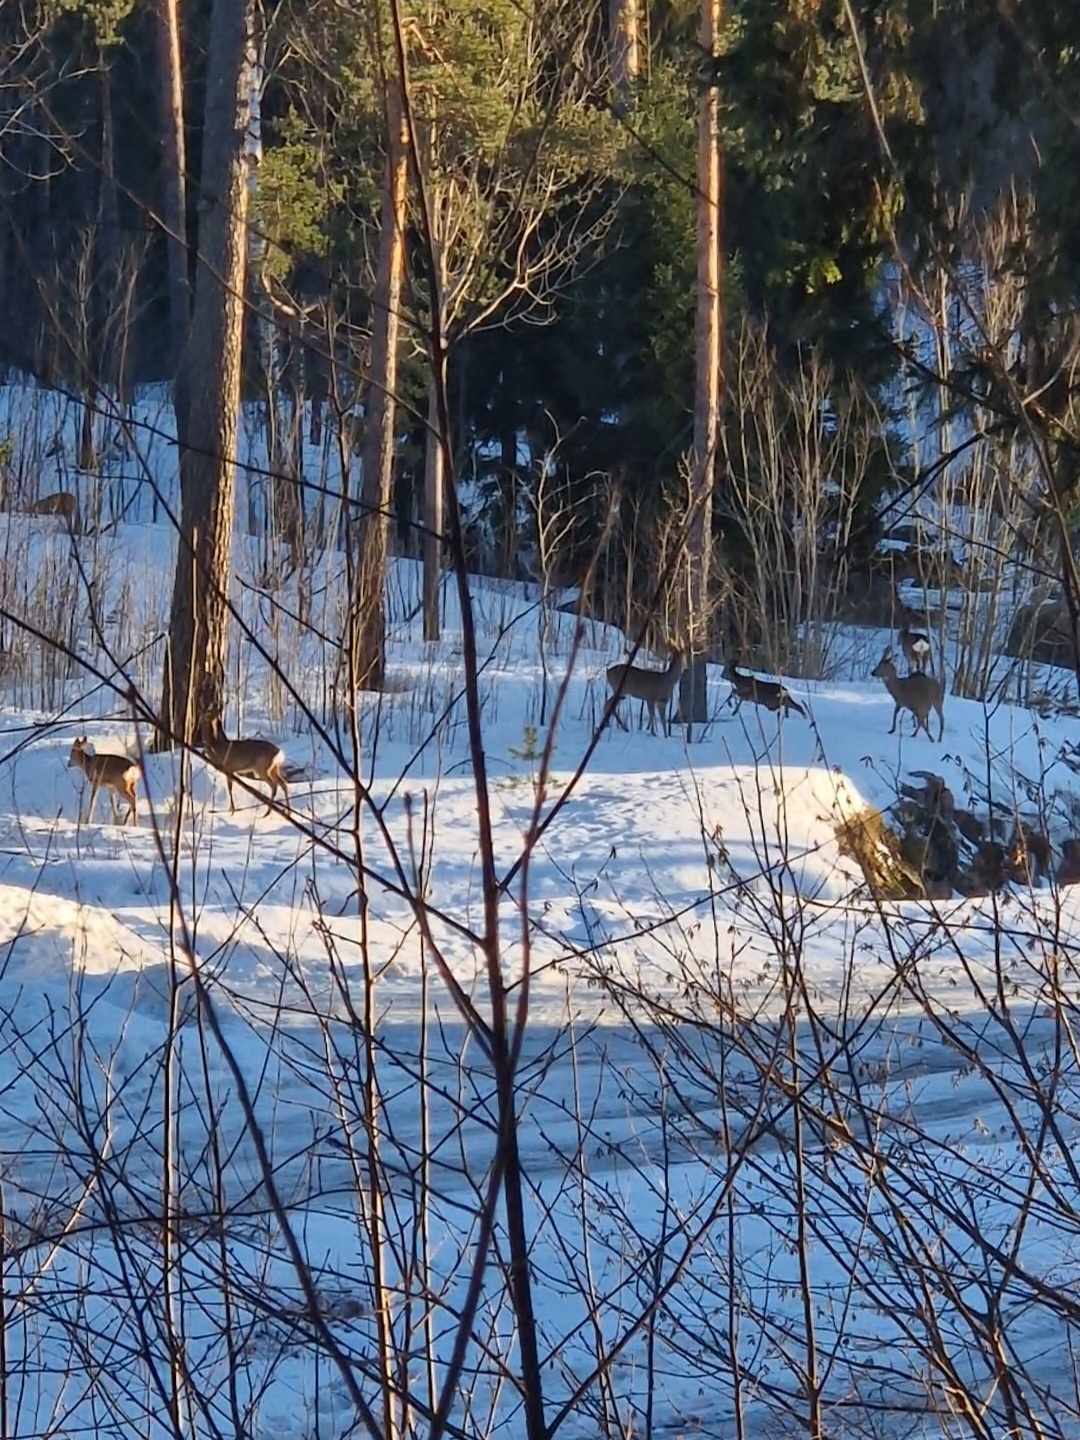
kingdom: Animalia
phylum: Chordata
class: Mammalia
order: Artiodactyla
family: Cervidae
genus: Capreolus
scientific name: Capreolus capreolus
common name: Western roe deer
